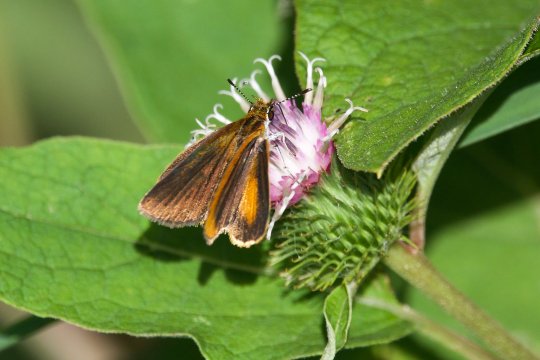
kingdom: Animalia
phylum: Arthropoda
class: Insecta
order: Lepidoptera
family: Hesperiidae
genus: Ancyloxypha
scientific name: Ancyloxypha numitor
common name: Least Skipper
